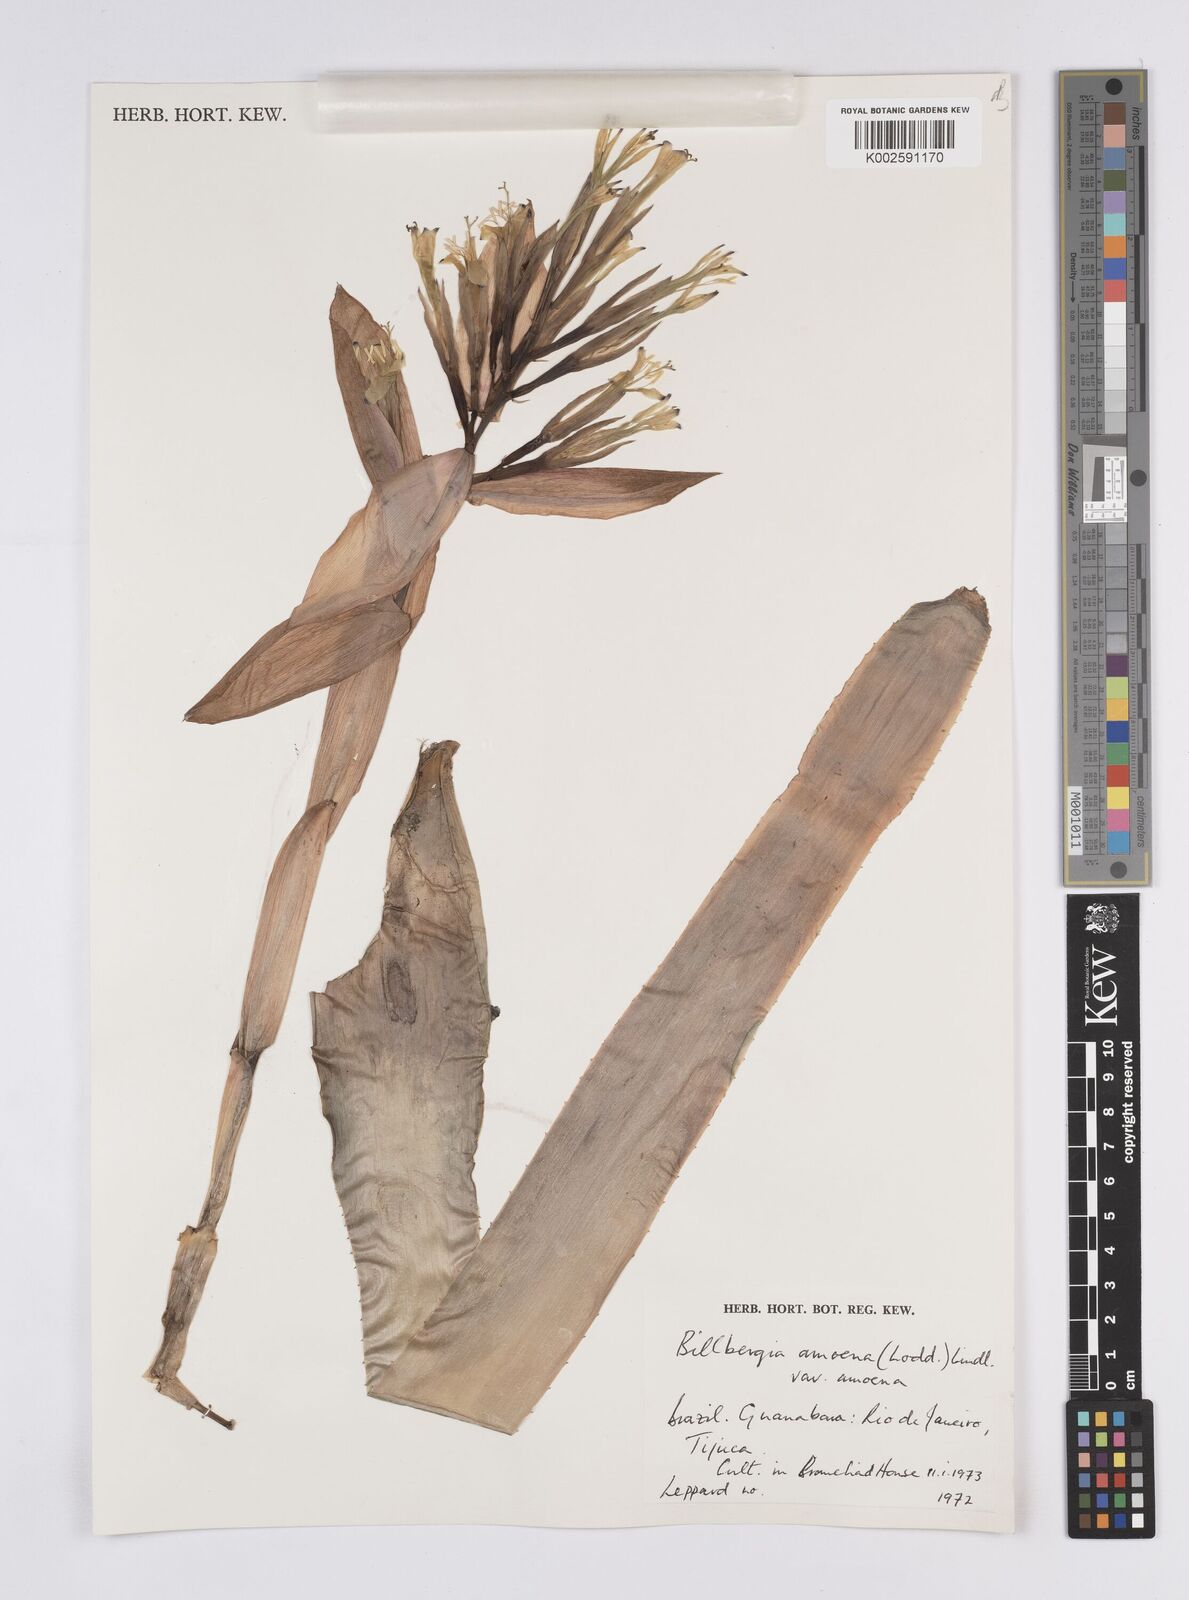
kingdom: Plantae
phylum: Tracheophyta
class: Liliopsida
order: Poales
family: Bromeliaceae
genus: Billbergia
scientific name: Billbergia amoena
